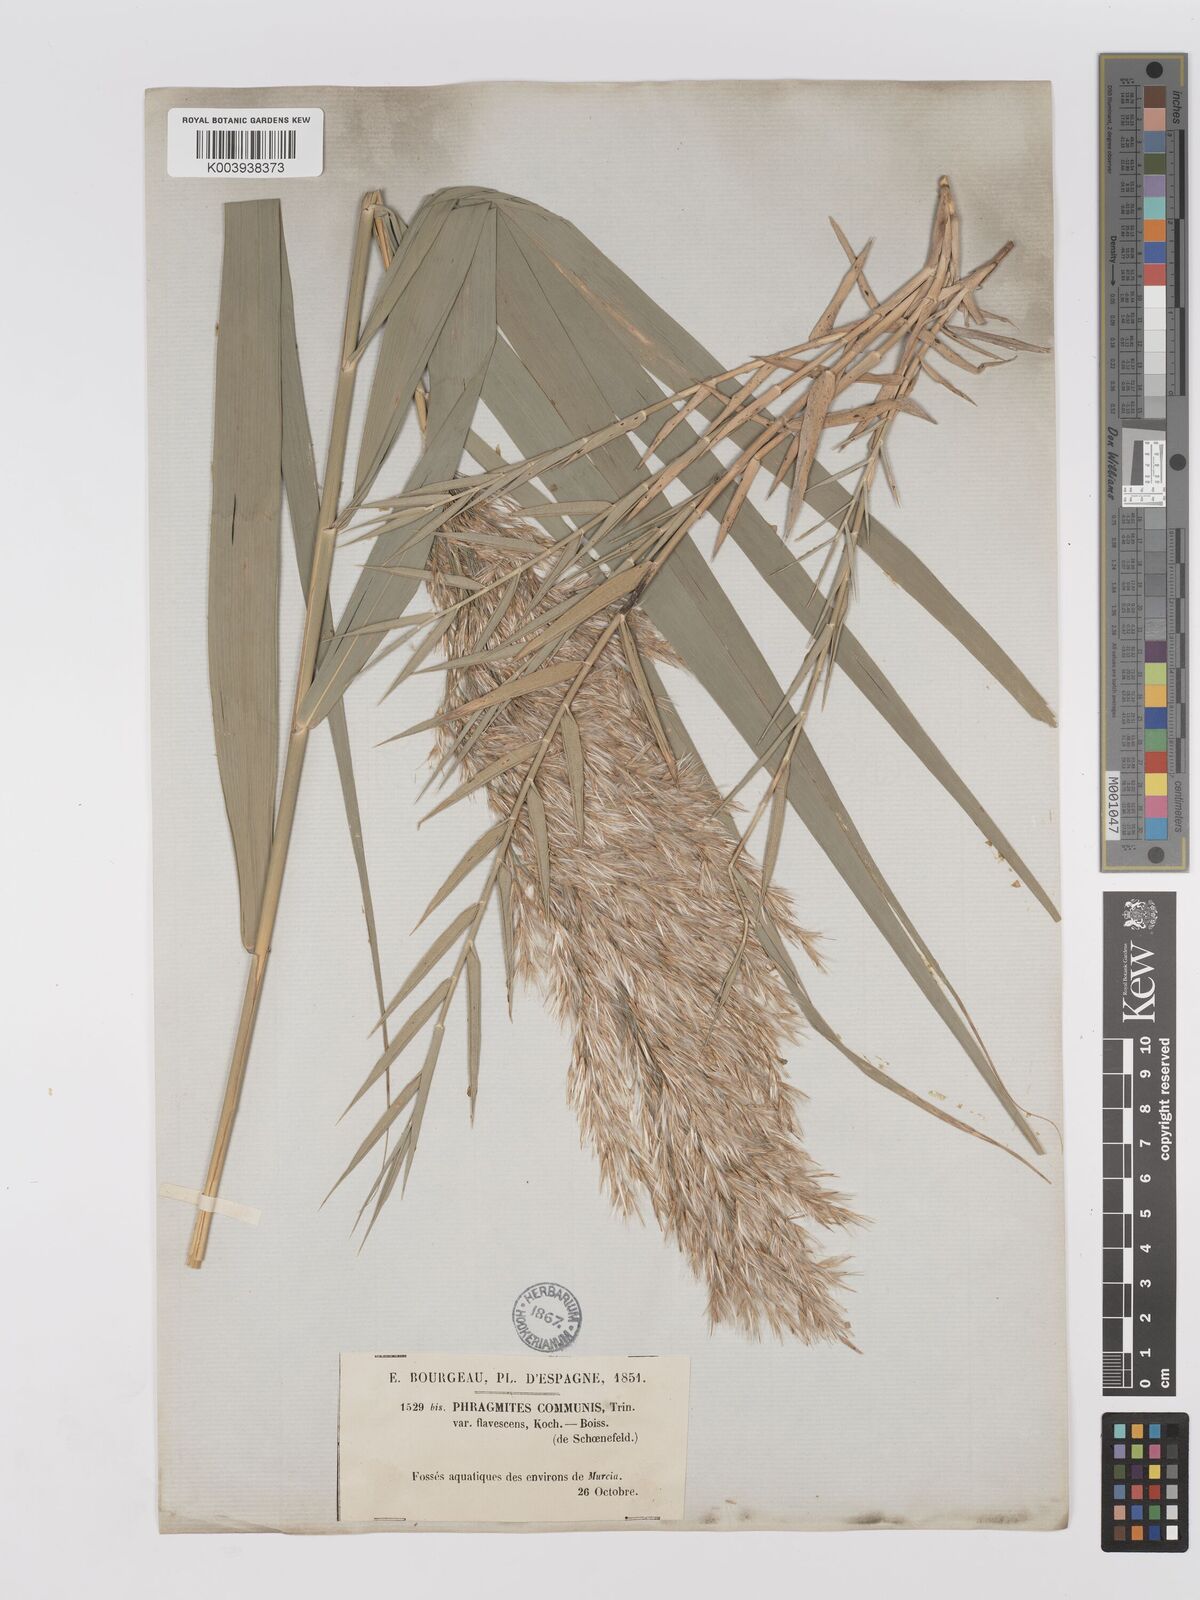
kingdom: Plantae
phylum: Tracheophyta
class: Liliopsida
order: Poales
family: Poaceae
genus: Phragmites
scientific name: Phragmites australis
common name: Common reed
